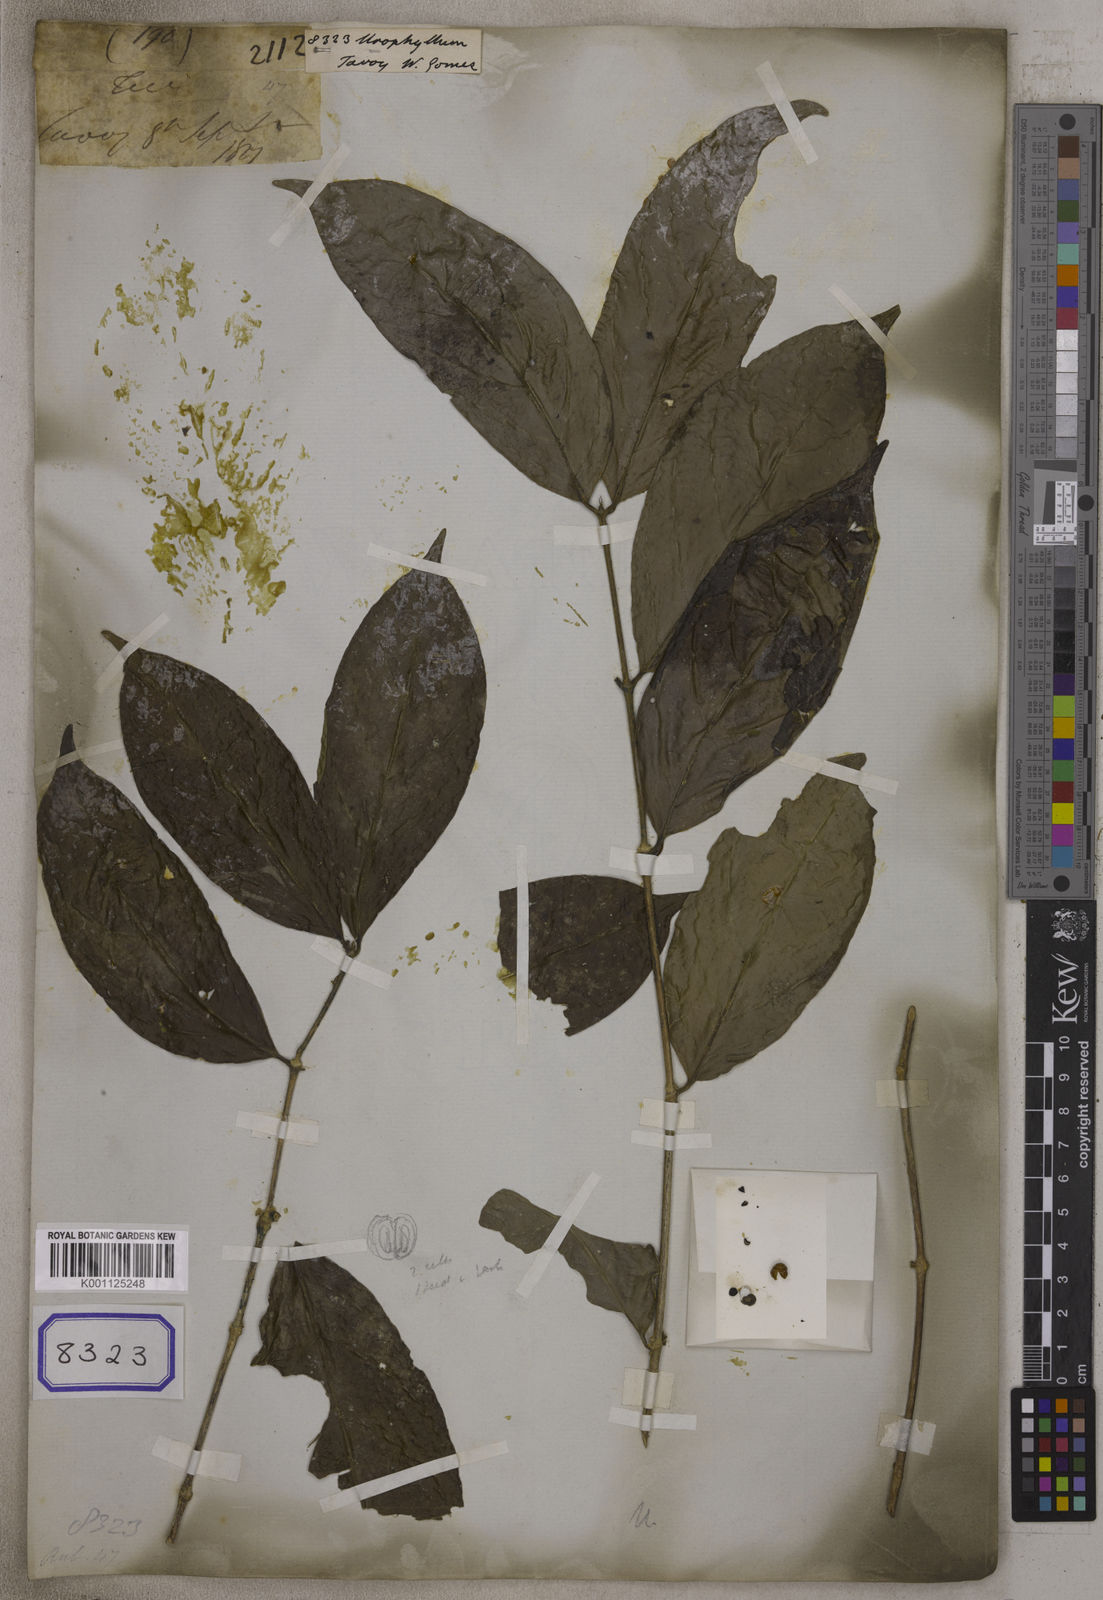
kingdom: Plantae
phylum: Tracheophyta
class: Magnoliopsida
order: Gentianales
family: Rubiaceae
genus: Urophyllum
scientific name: Urophyllum
